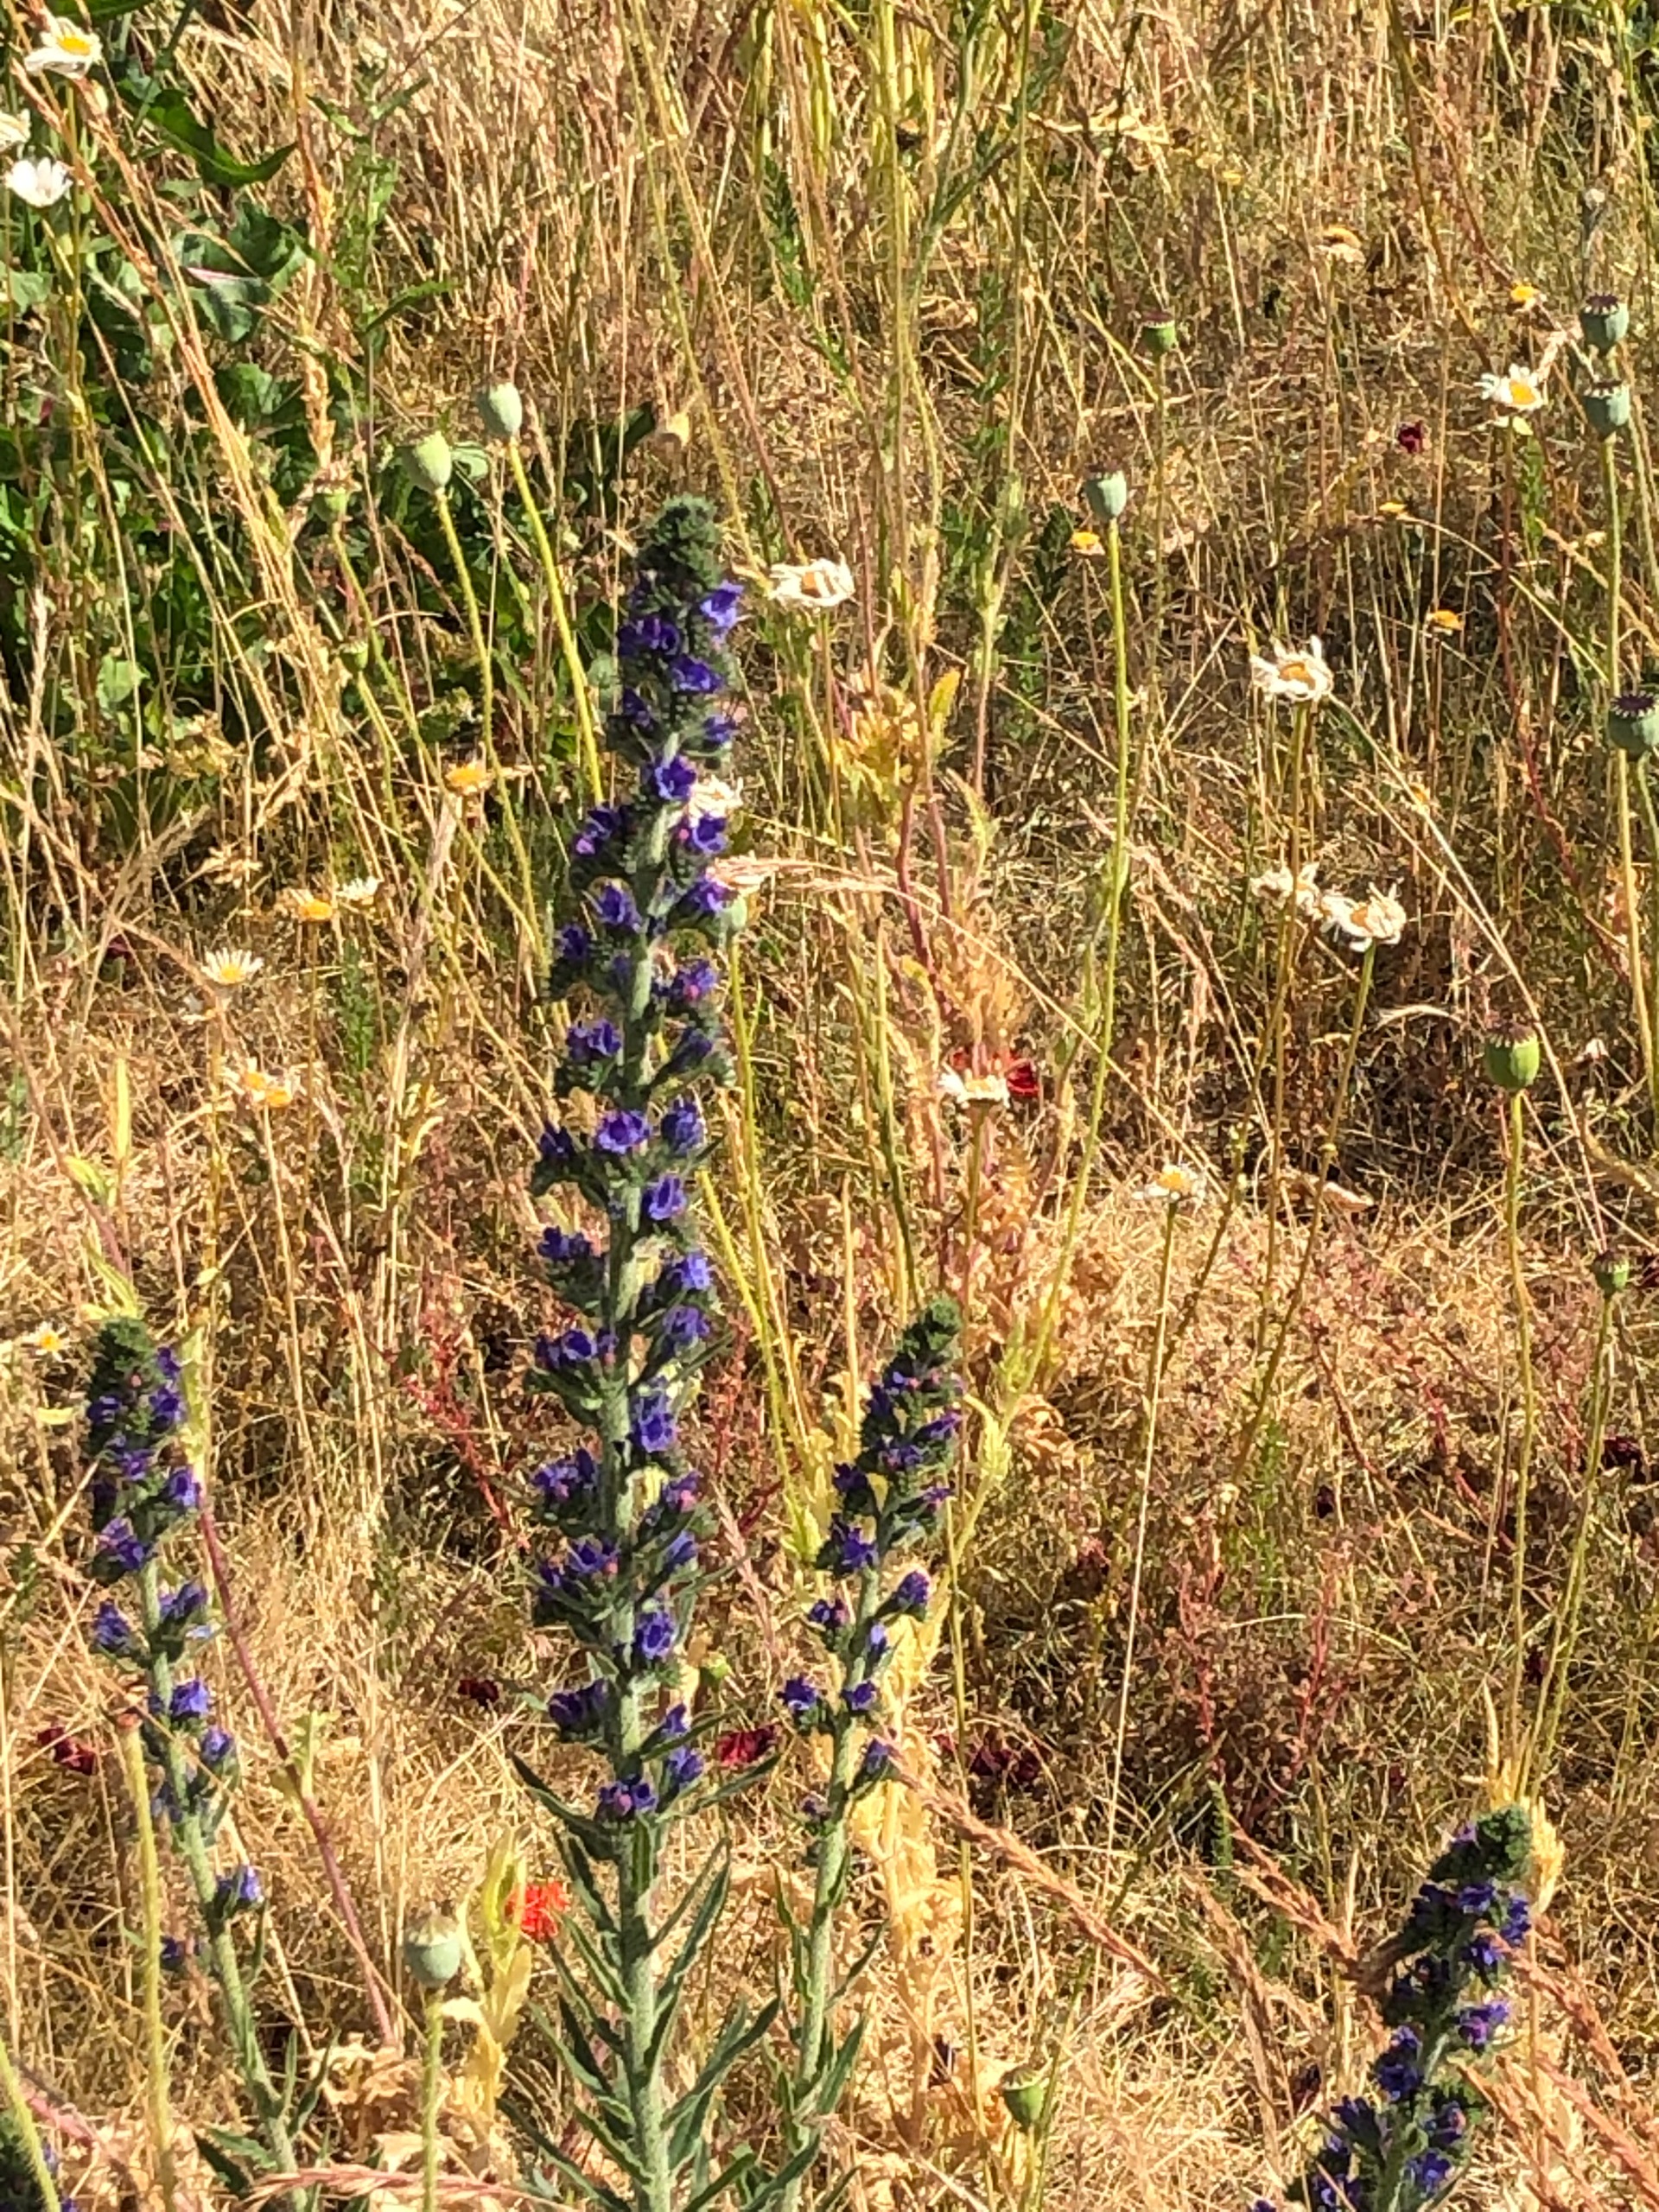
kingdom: Plantae
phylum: Tracheophyta
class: Magnoliopsida
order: Boraginales
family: Boraginaceae
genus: Echium
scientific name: Echium vulgare
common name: Slangehoved
